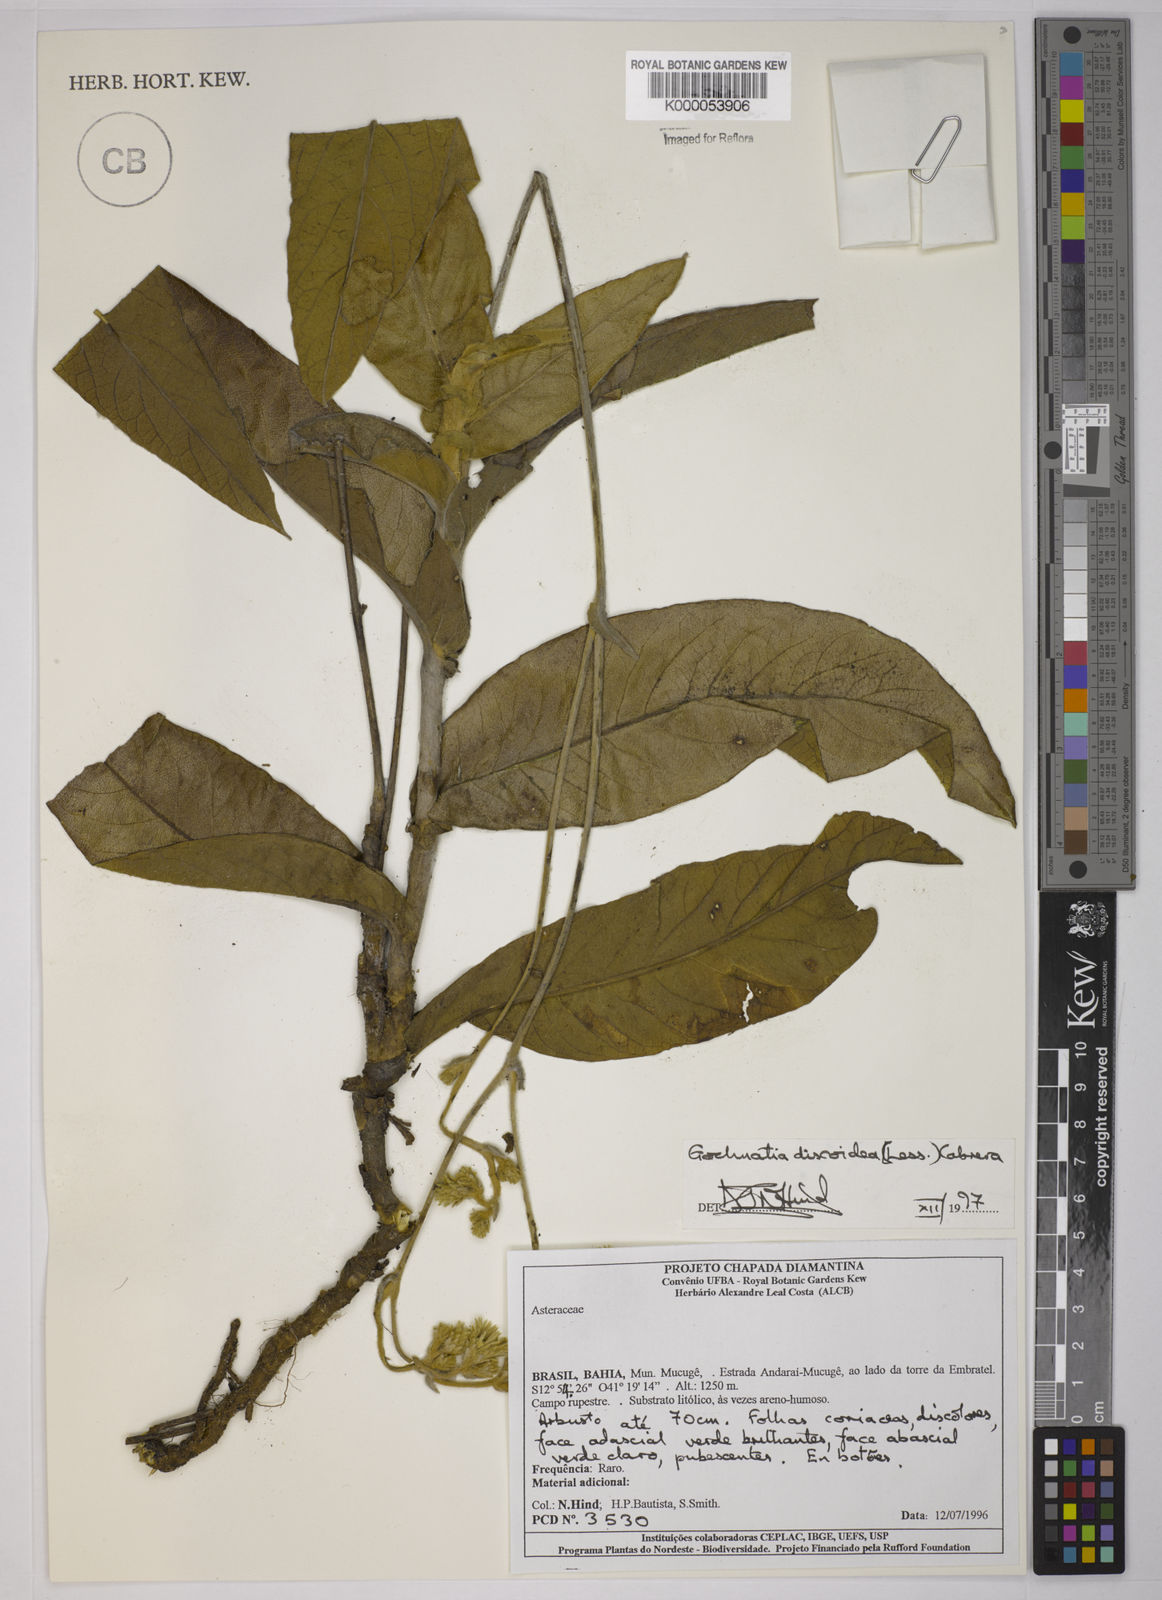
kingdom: Plantae
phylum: Tracheophyta
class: Magnoliopsida
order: Asterales
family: Asteraceae
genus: Richterago
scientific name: Richterago discoidea
